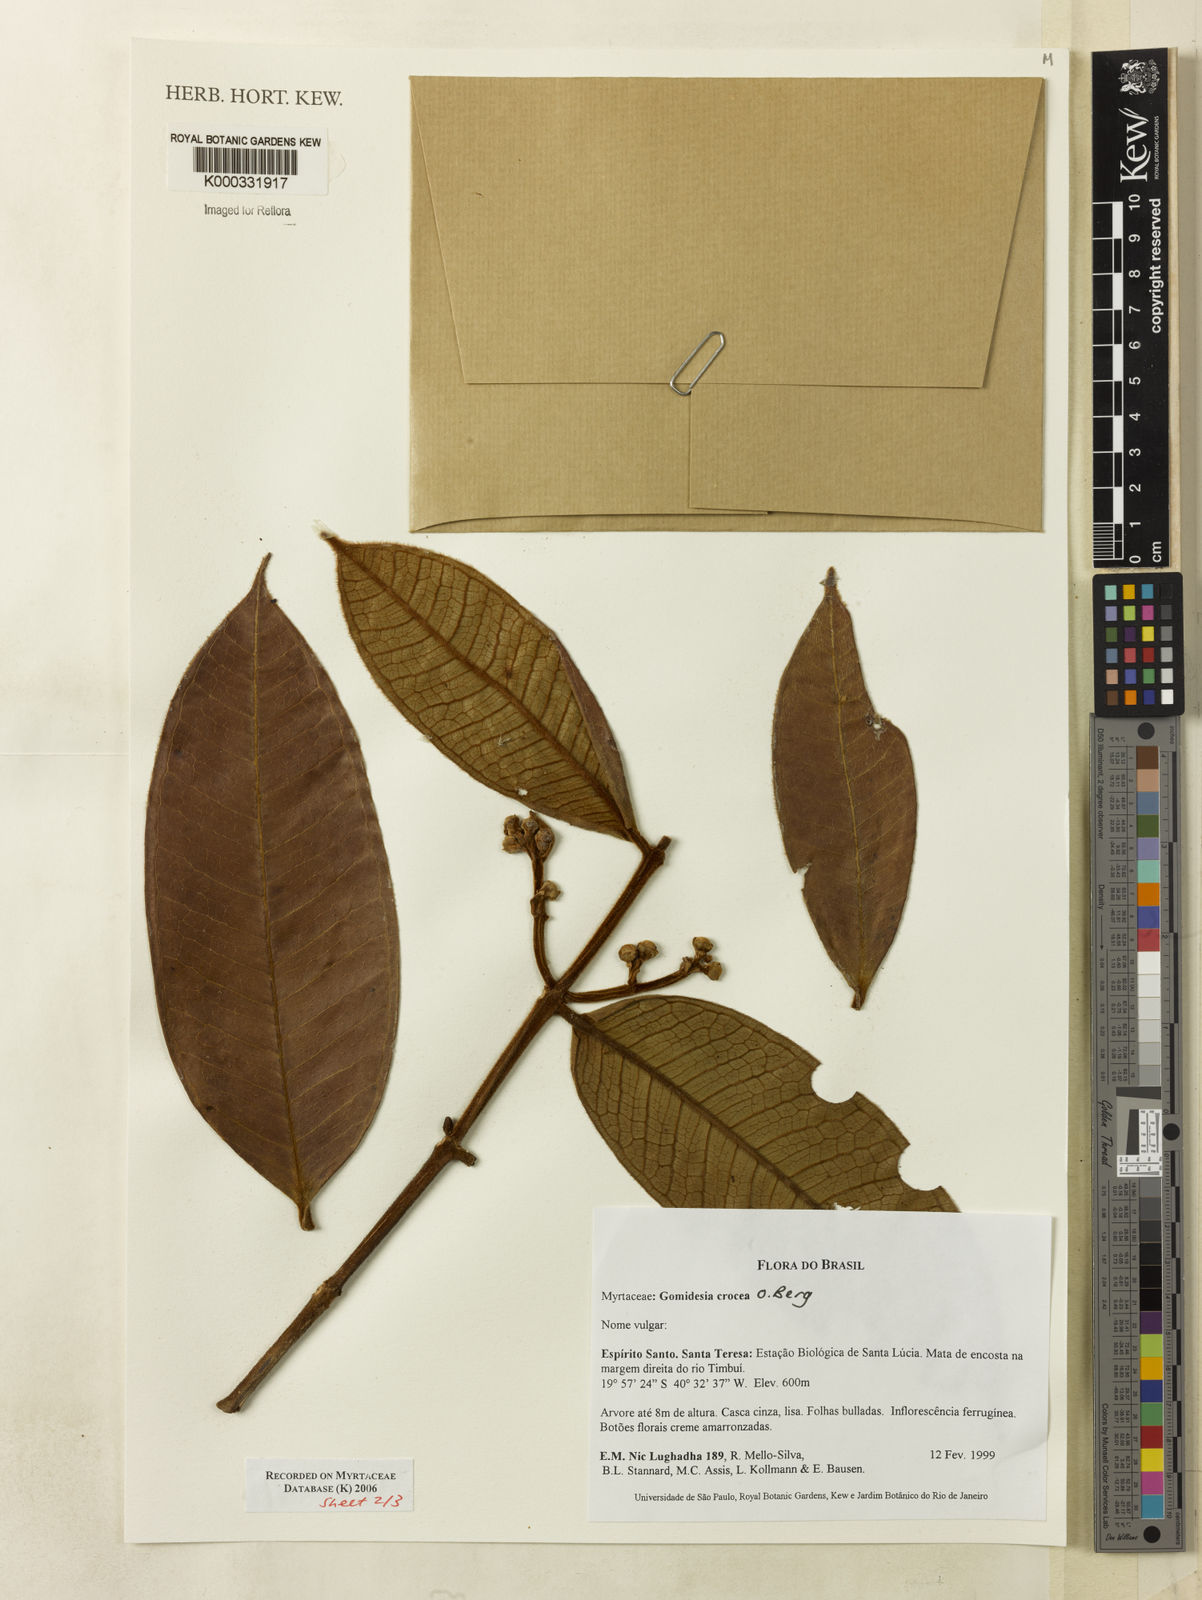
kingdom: Plantae
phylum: Tracheophyta
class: Magnoliopsida
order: Myrtales
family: Myrtaceae
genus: Myrcia
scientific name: Myrcia amplexicaulis
